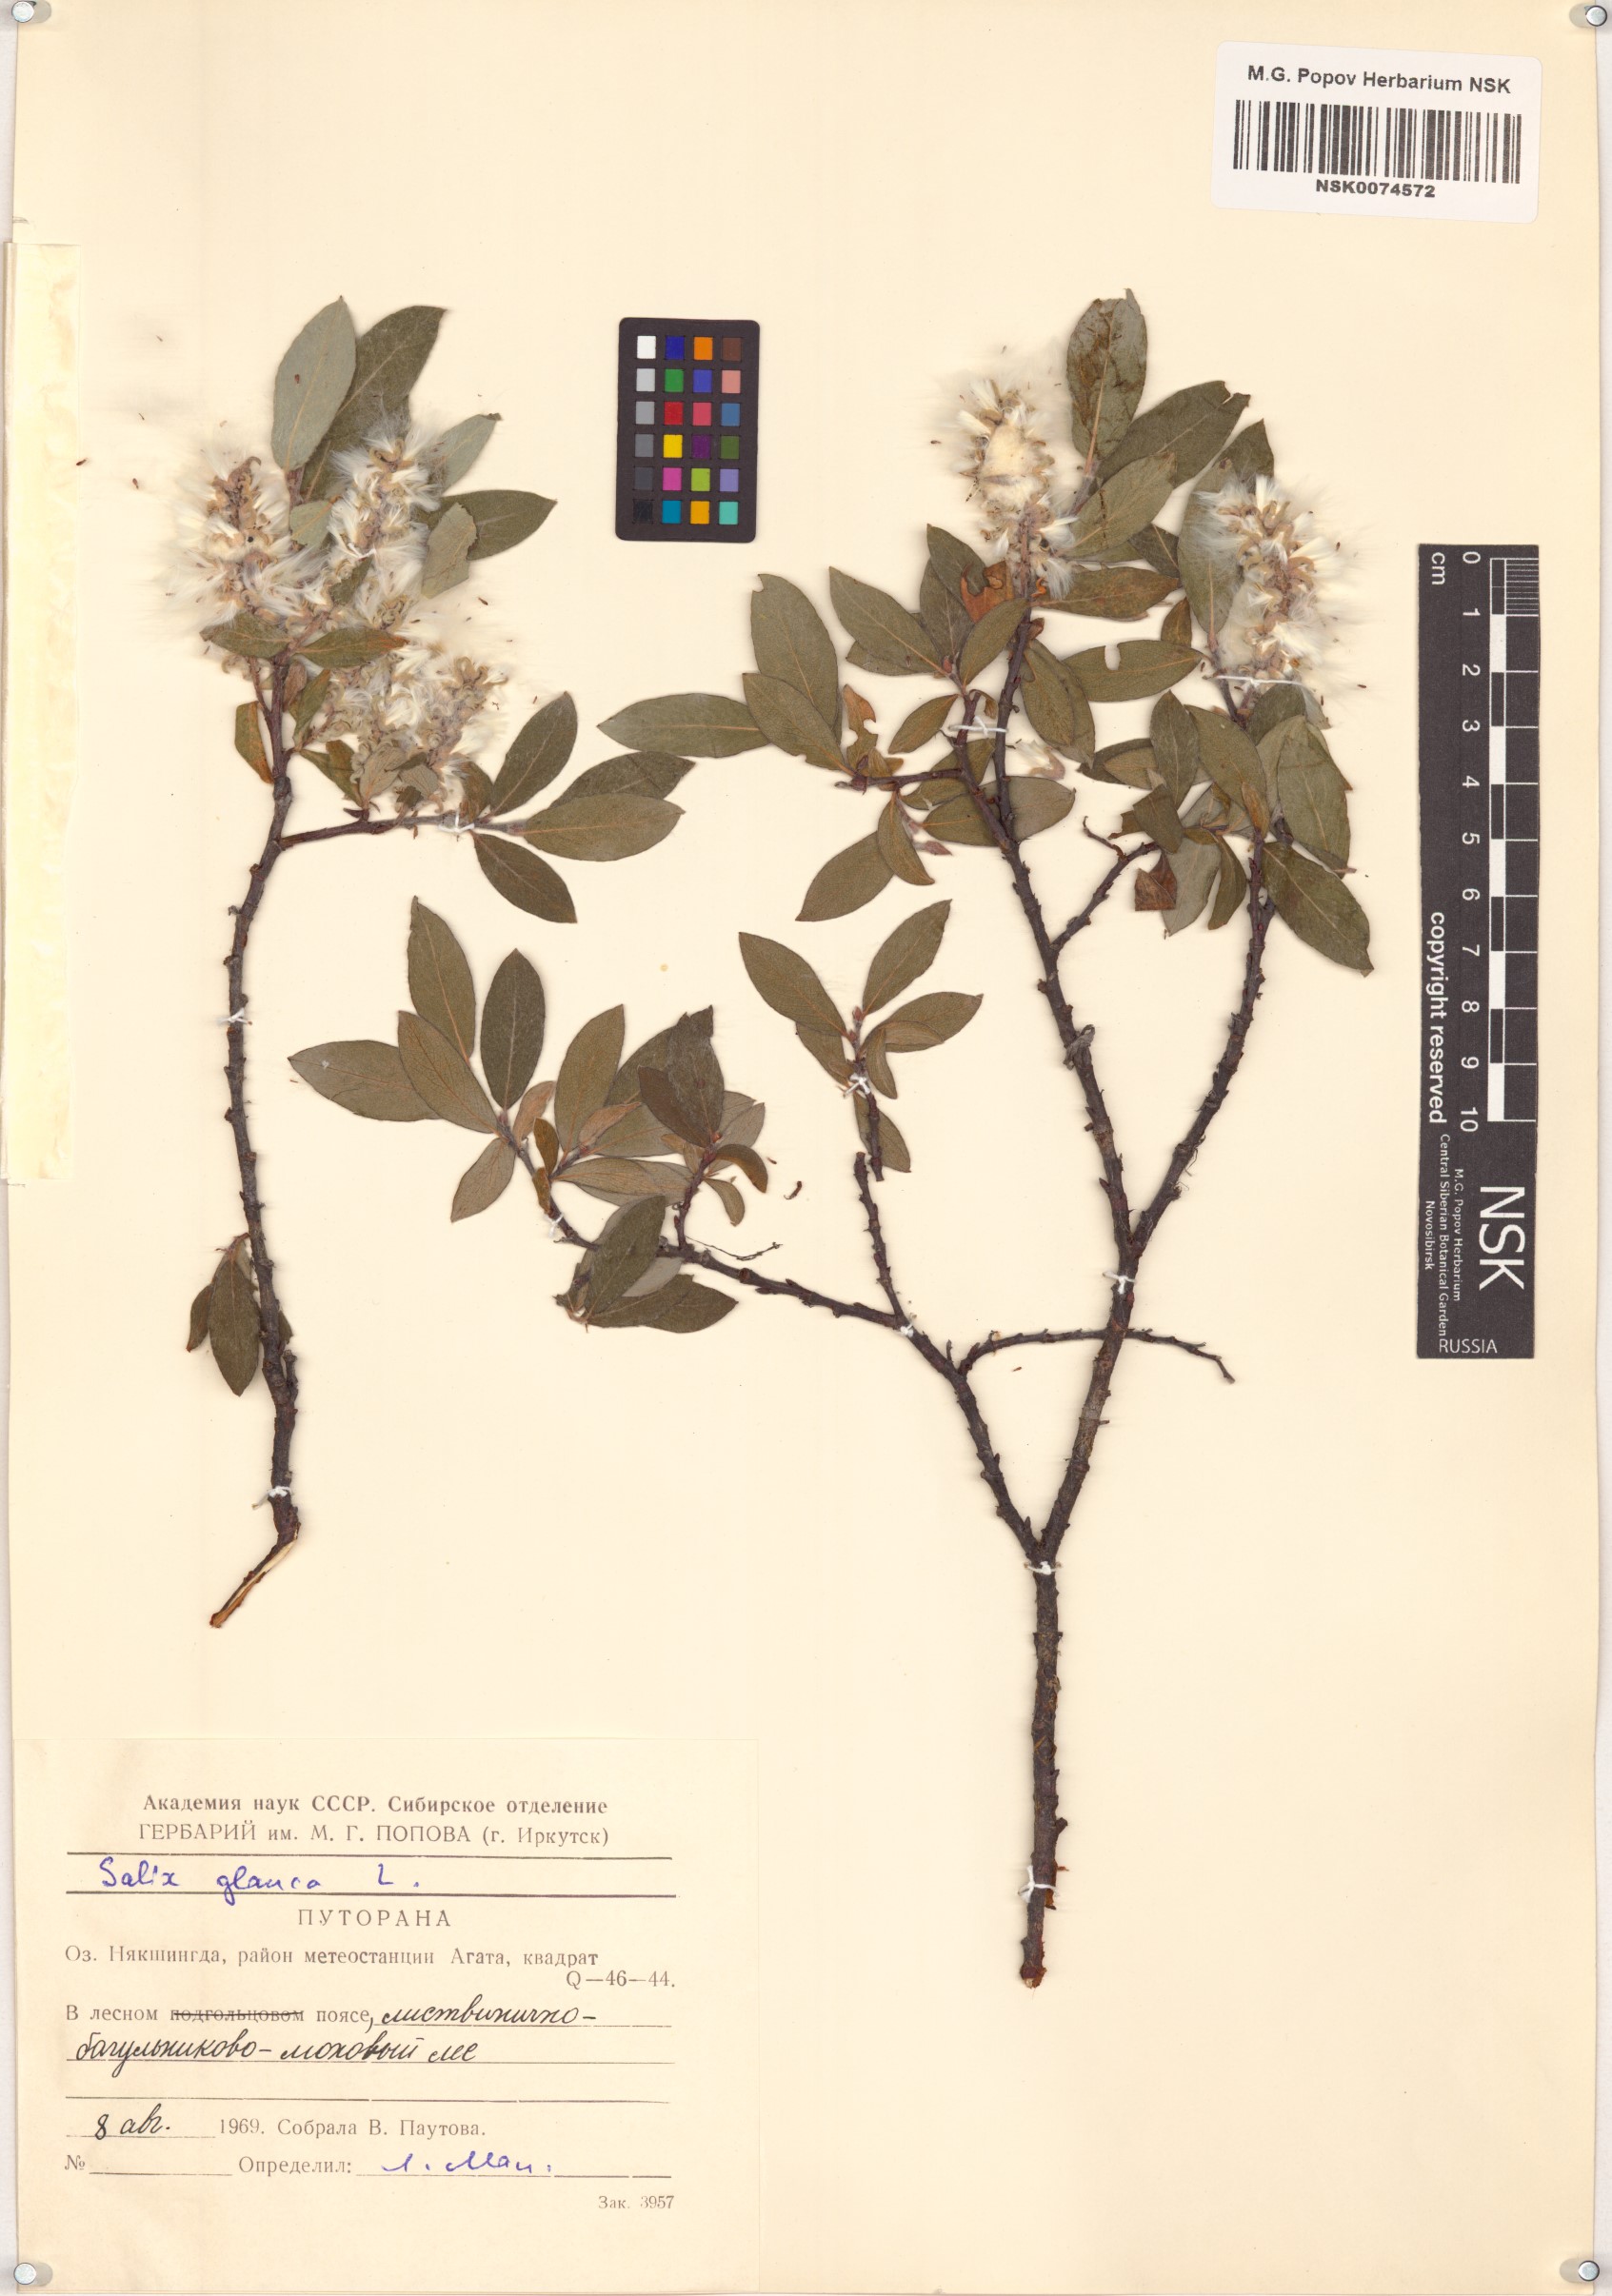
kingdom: Plantae
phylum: Tracheophyta
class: Magnoliopsida
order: Malpighiales
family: Salicaceae
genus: Salix
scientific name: Salix glauca
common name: Glaucous willow
